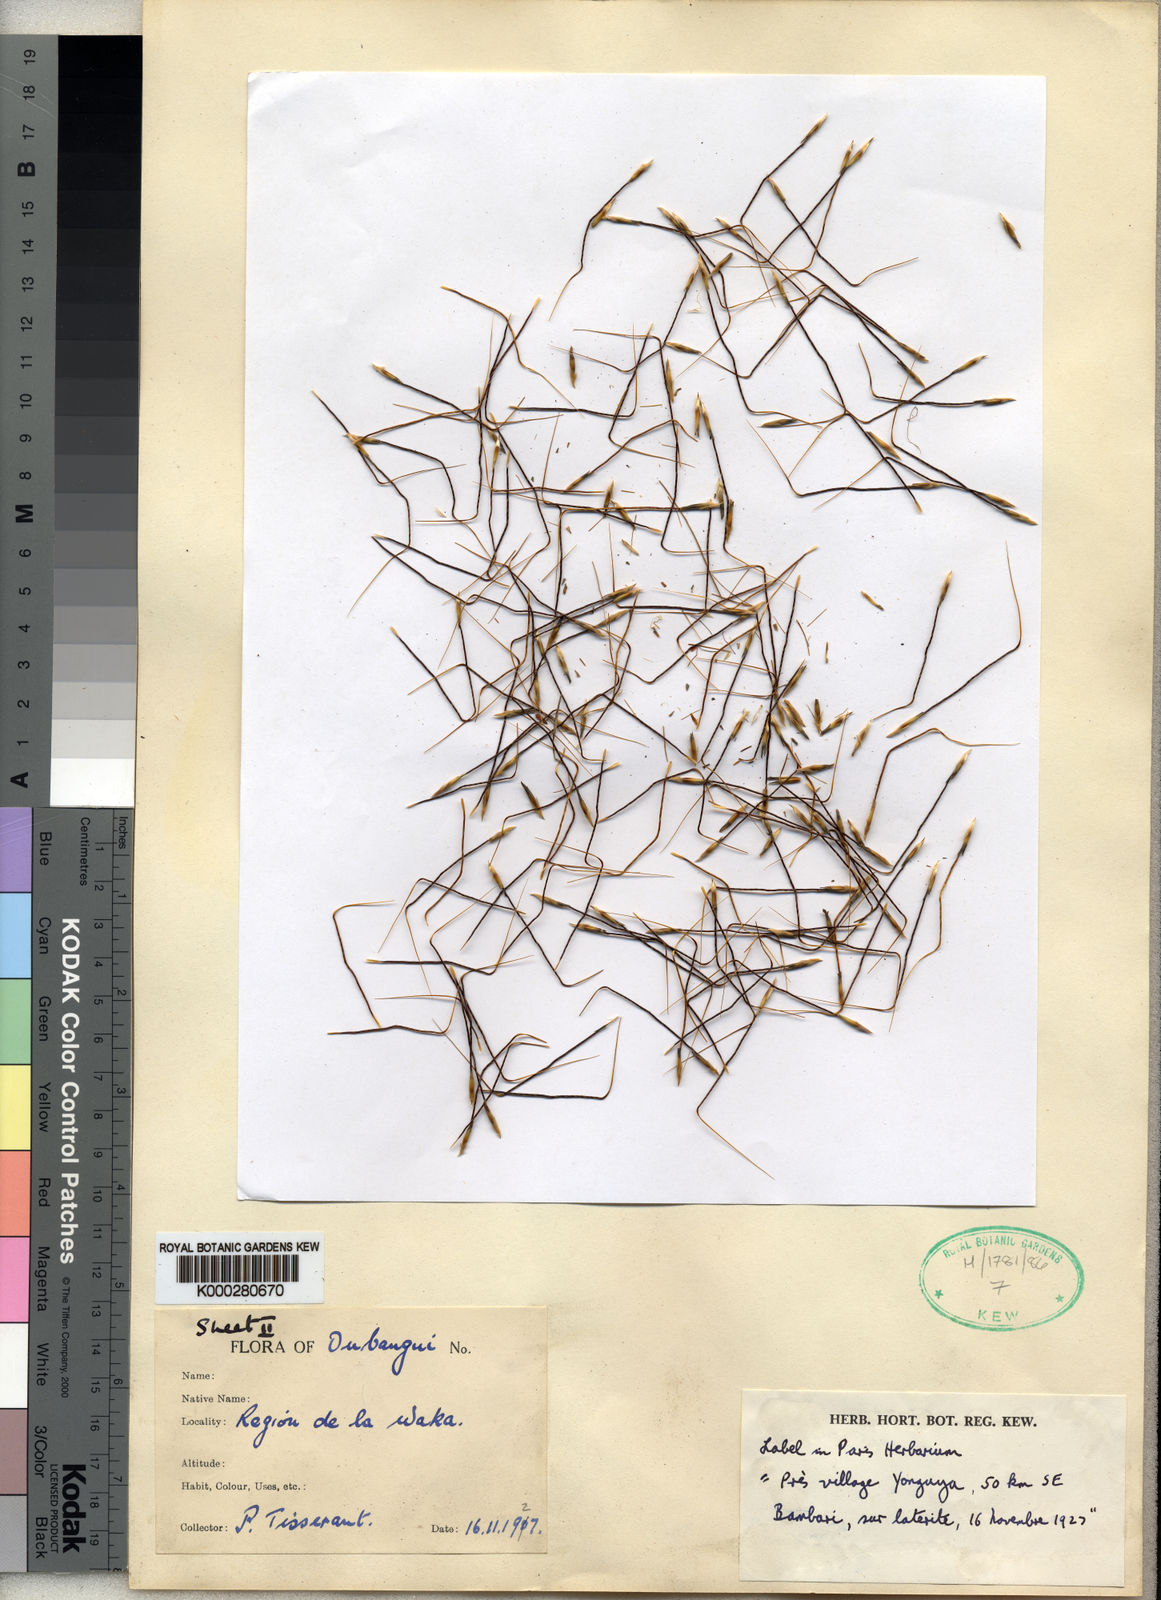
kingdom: Plantae
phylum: Tracheophyta
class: Liliopsida
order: Poales
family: Poaceae
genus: Sorghastrum
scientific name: Sorghastrum tisserantii
